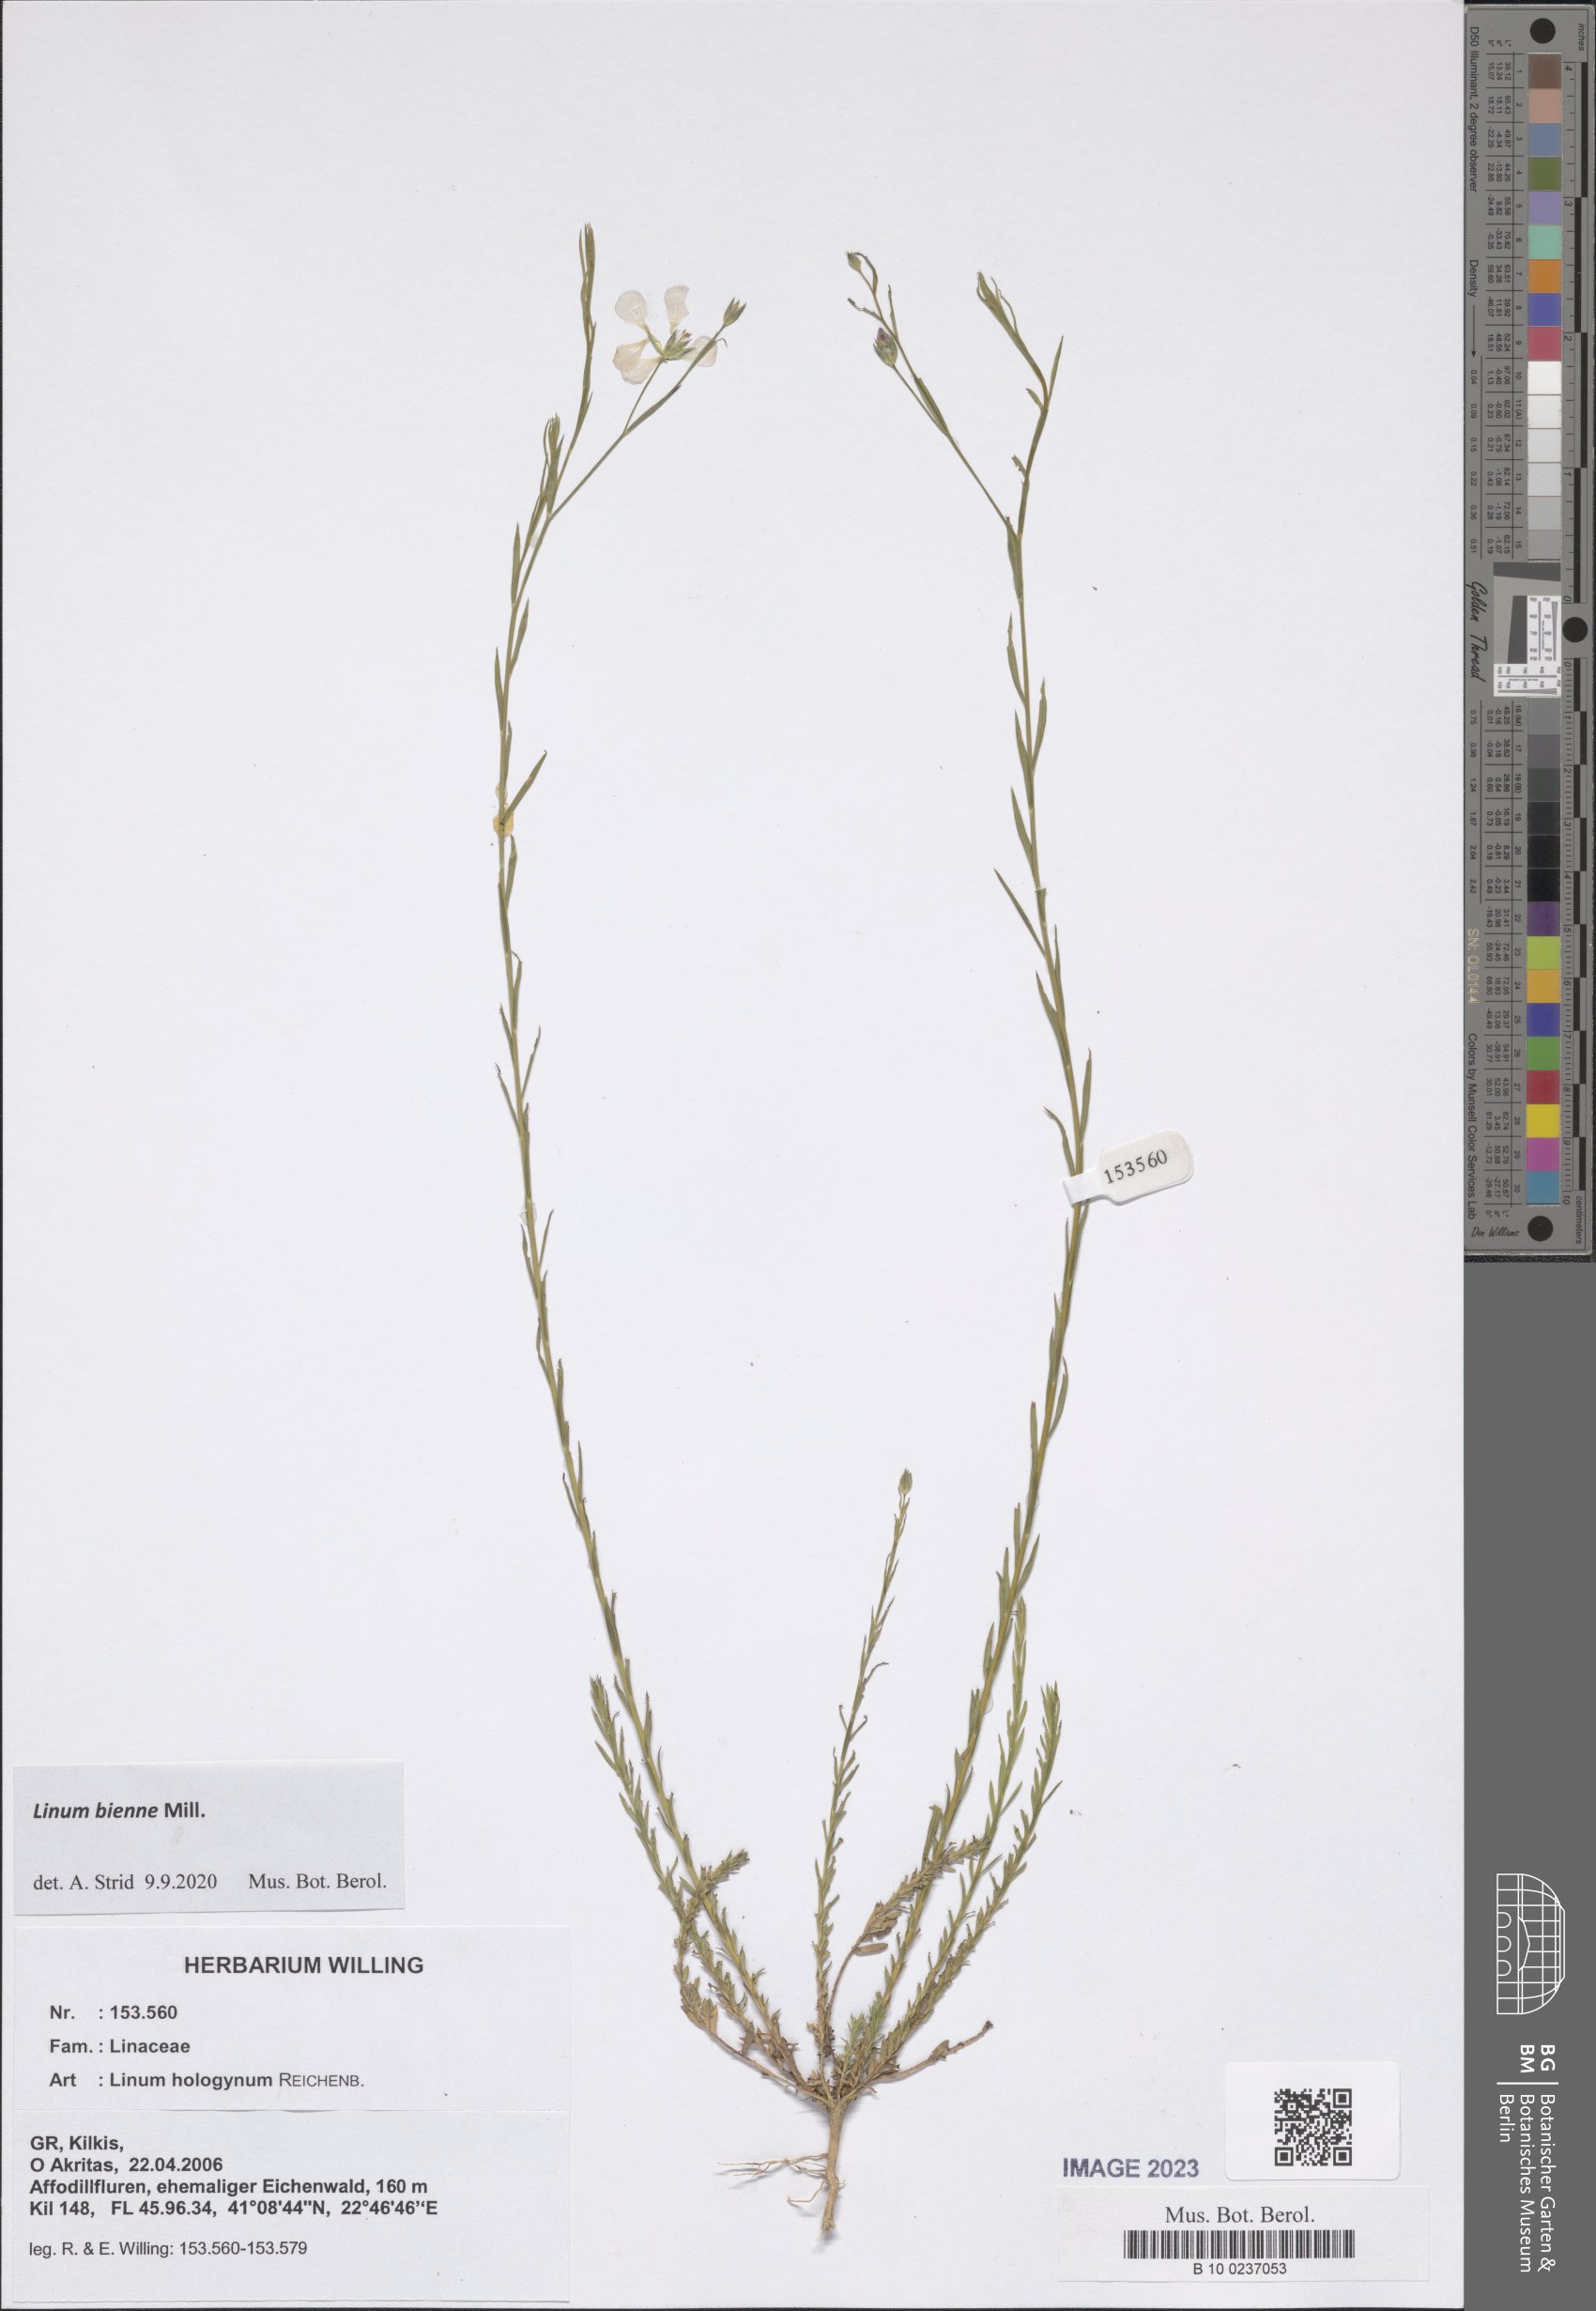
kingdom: Plantae
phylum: Tracheophyta
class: Magnoliopsida
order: Malpighiales
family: Linaceae
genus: Linum
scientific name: Linum bienne
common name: Pale flax
